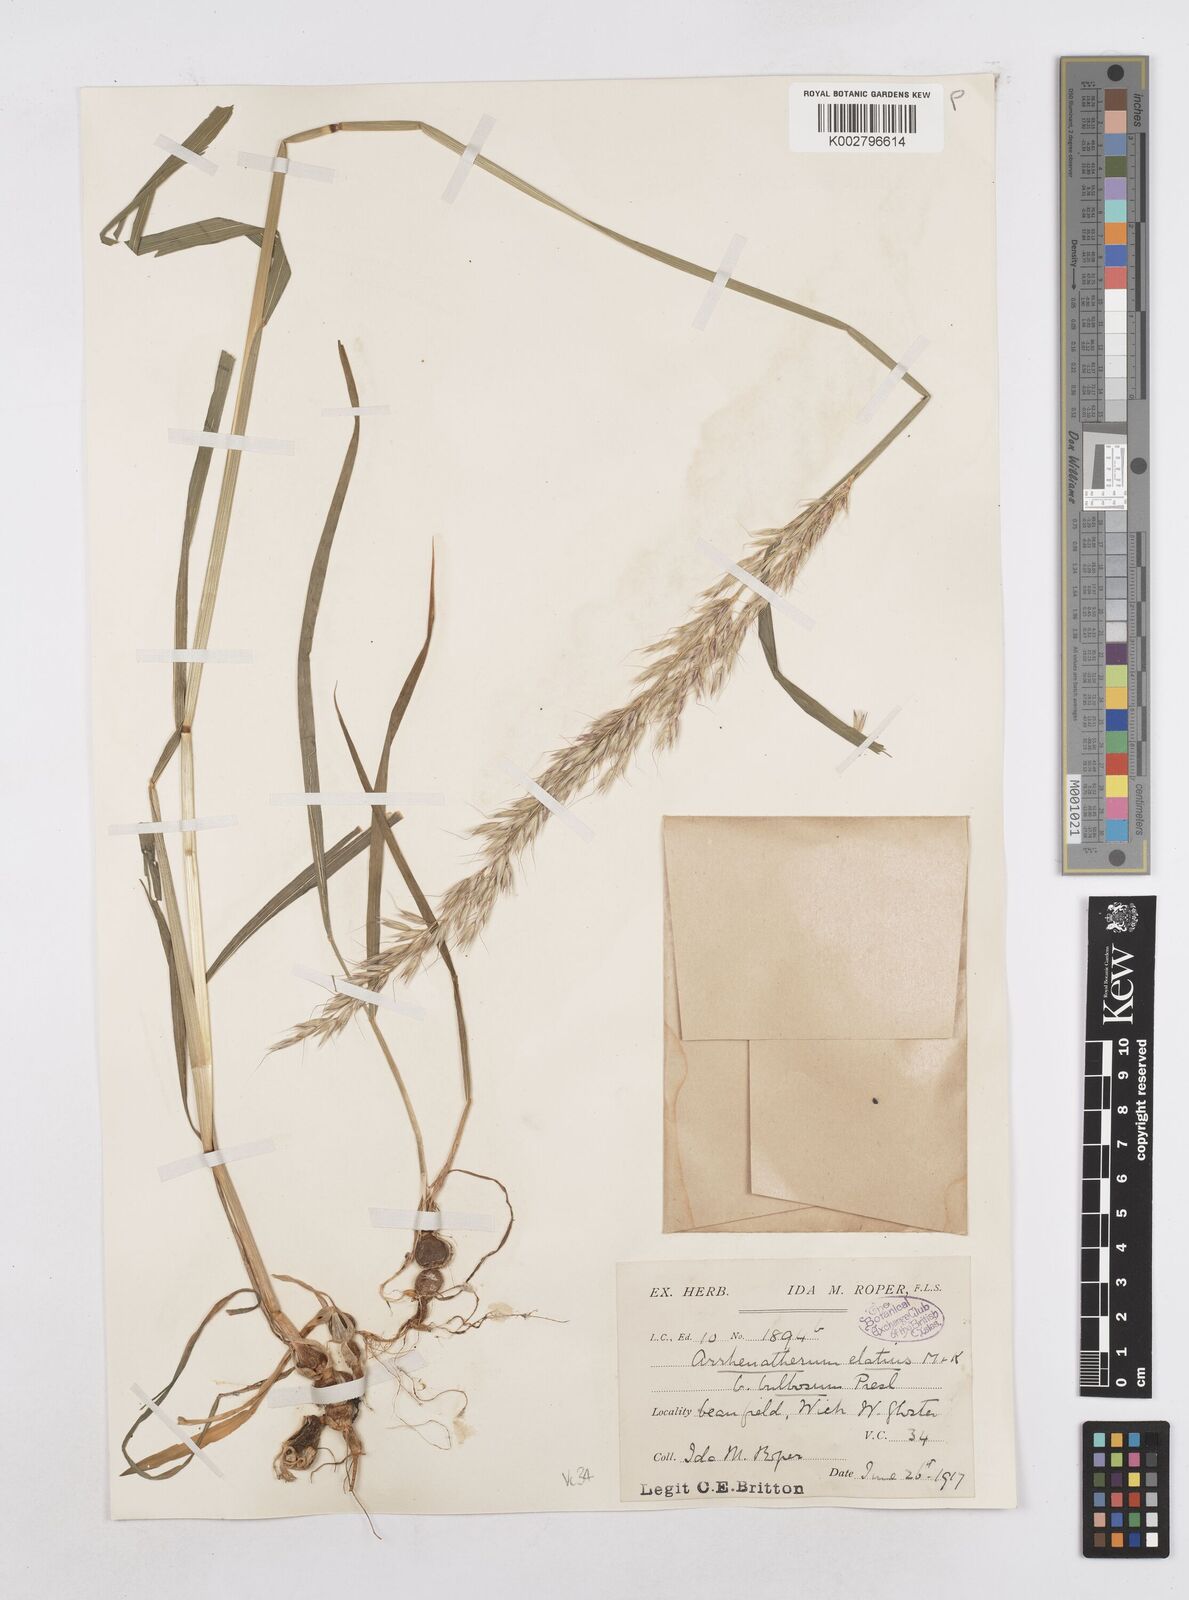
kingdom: Plantae
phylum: Tracheophyta
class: Liliopsida
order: Poales
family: Poaceae
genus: Arrhenatherum
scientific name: Arrhenatherum elatius
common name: Tall oatgrass
